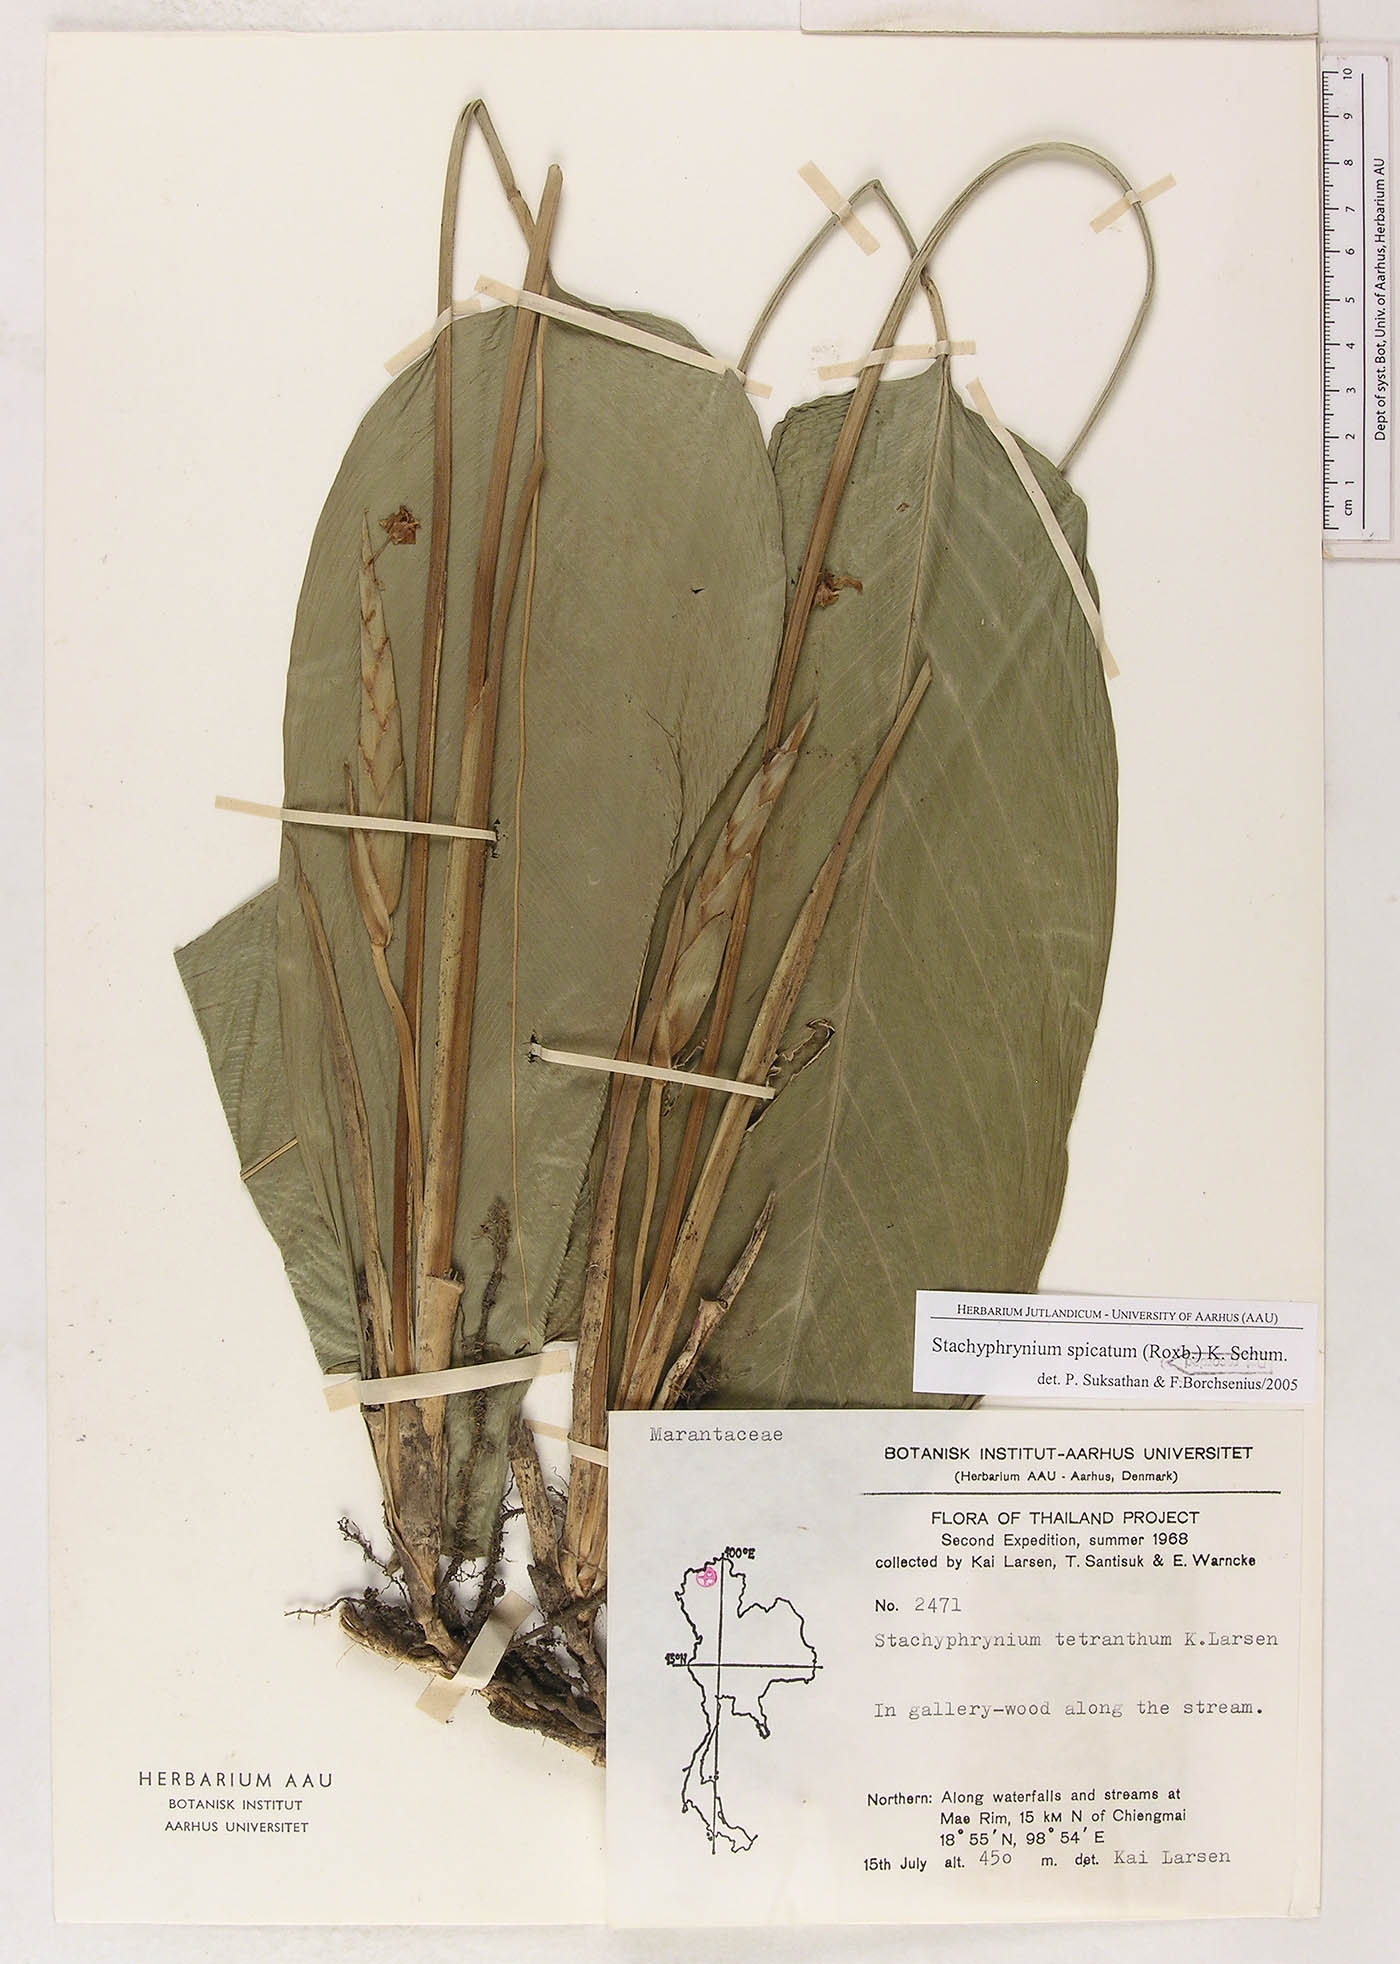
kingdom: Plantae
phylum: Tracheophyta
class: Liliopsida
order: Zingiberales
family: Marantaceae
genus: Stachyphrynium
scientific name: Stachyphrynium spicatum
